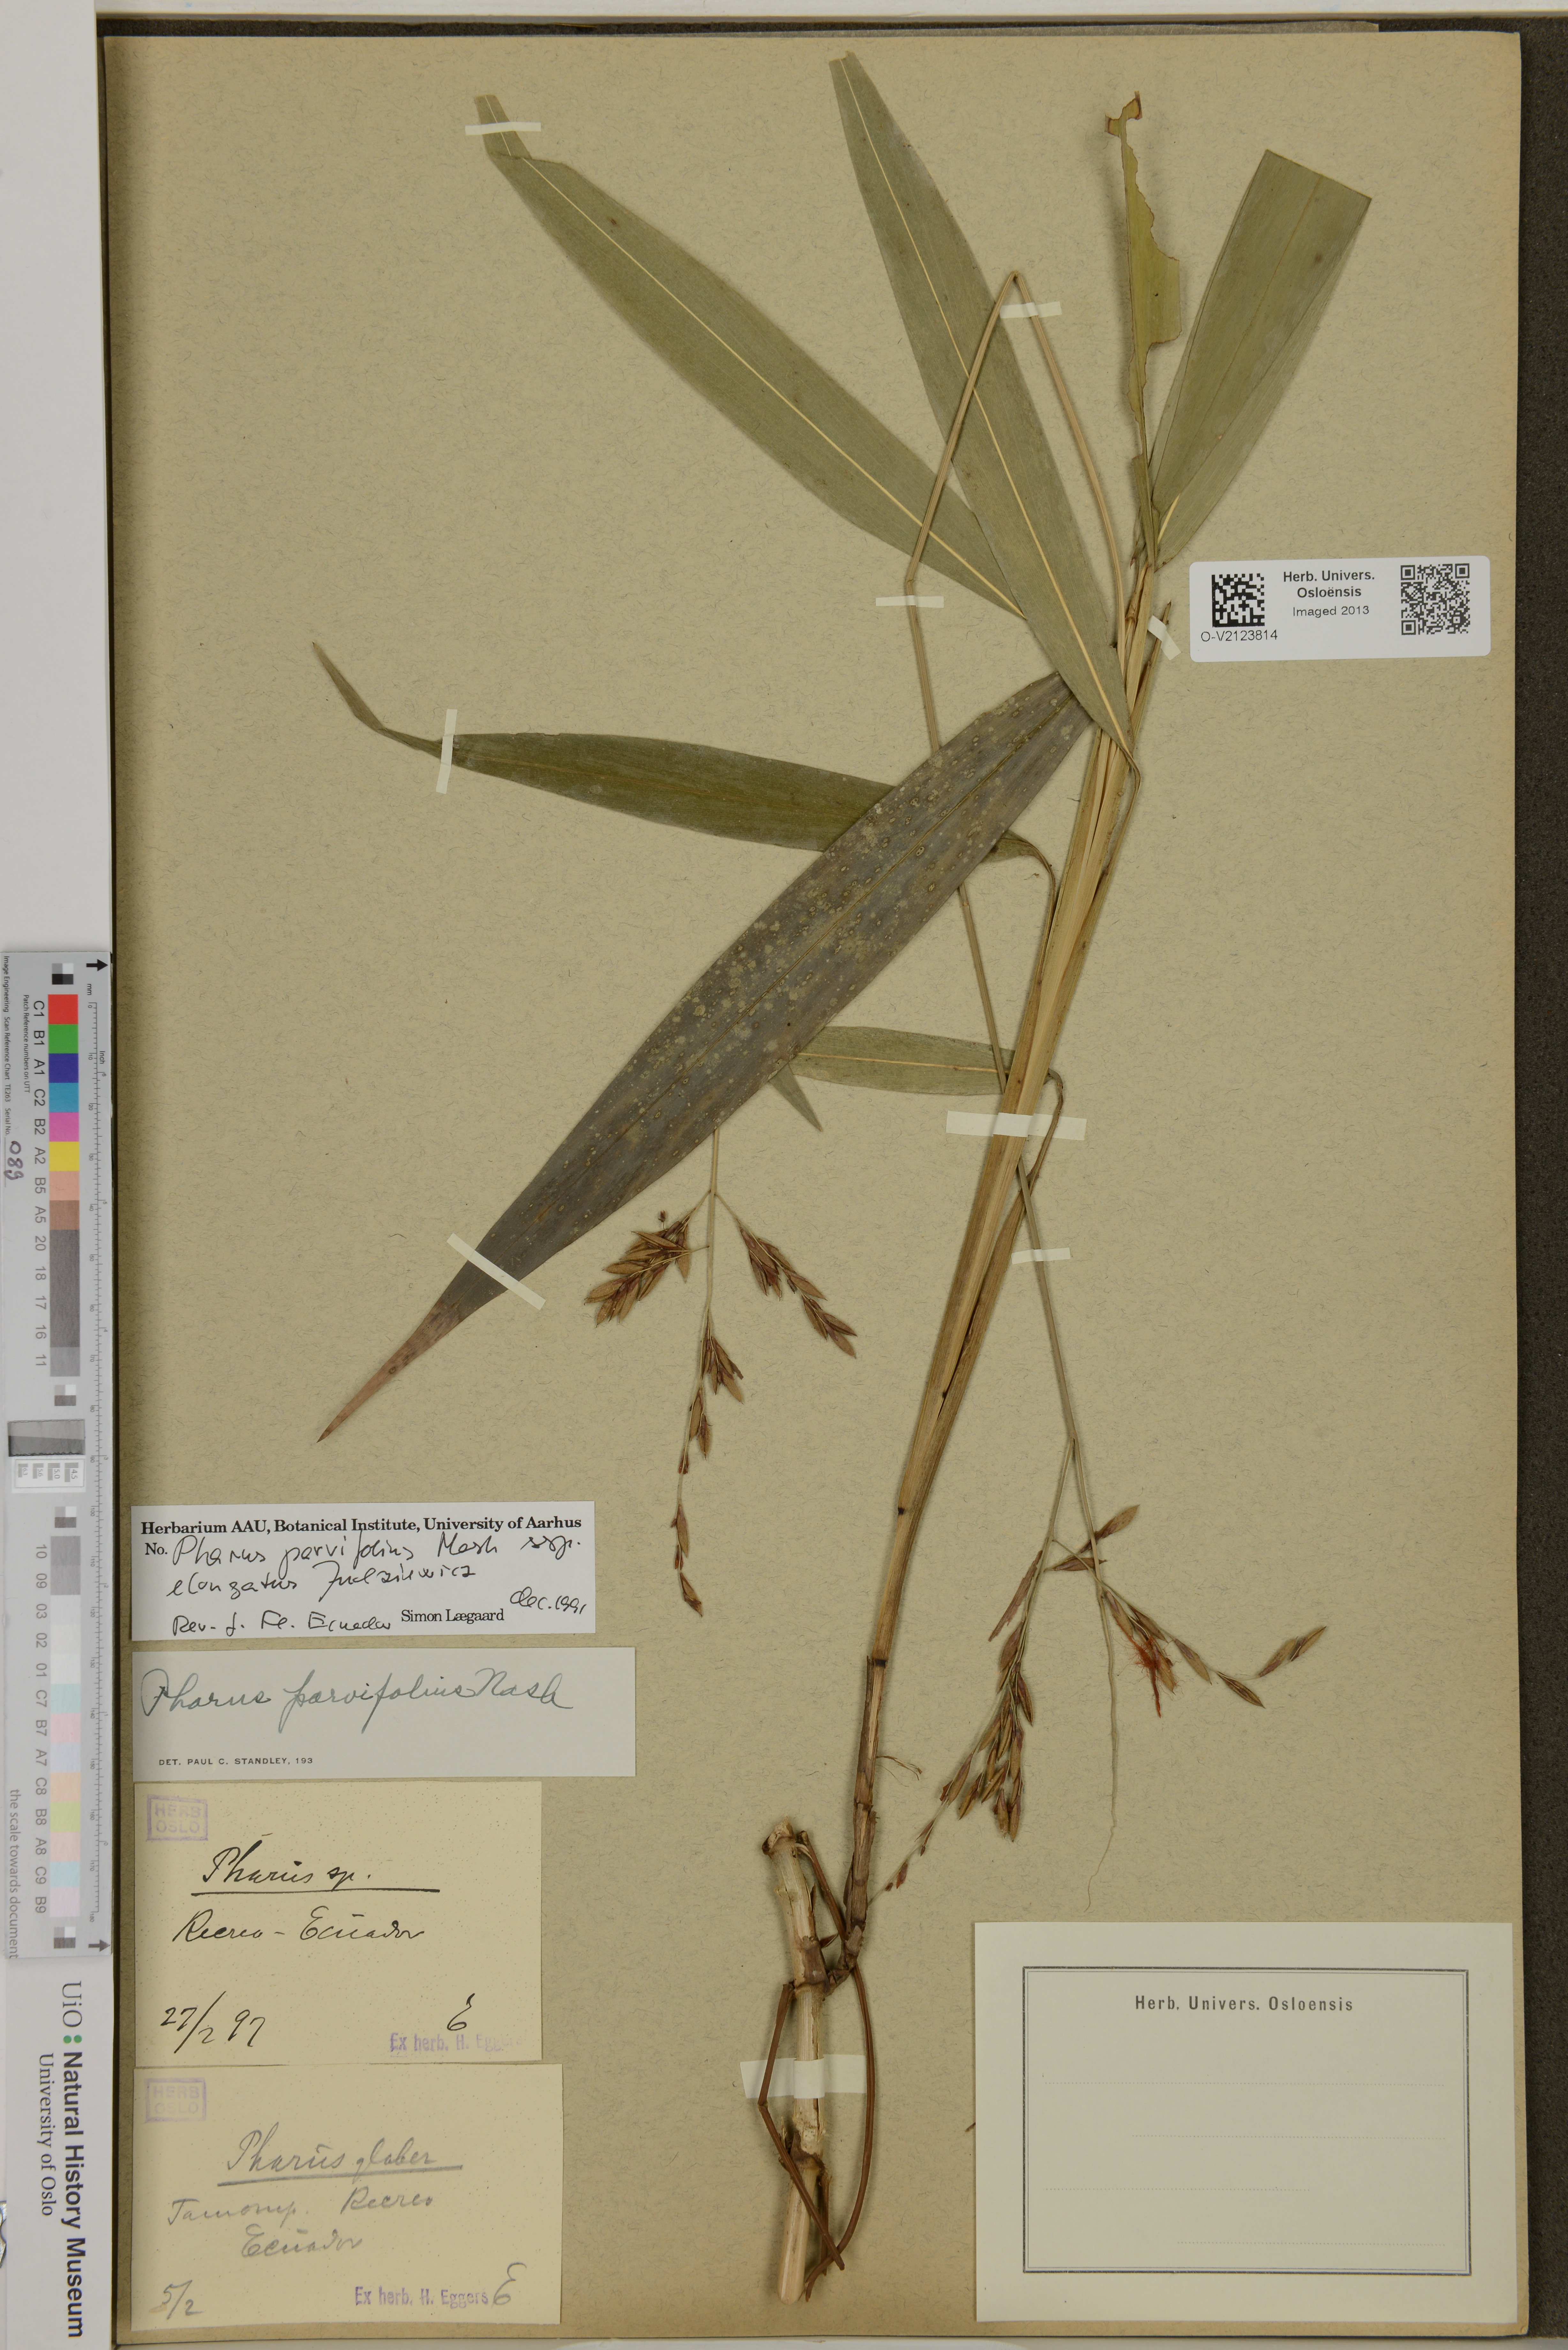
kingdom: Plantae
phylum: Tracheophyta
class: Liliopsida
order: Poales
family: Poaceae
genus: Pharus
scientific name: Pharus
